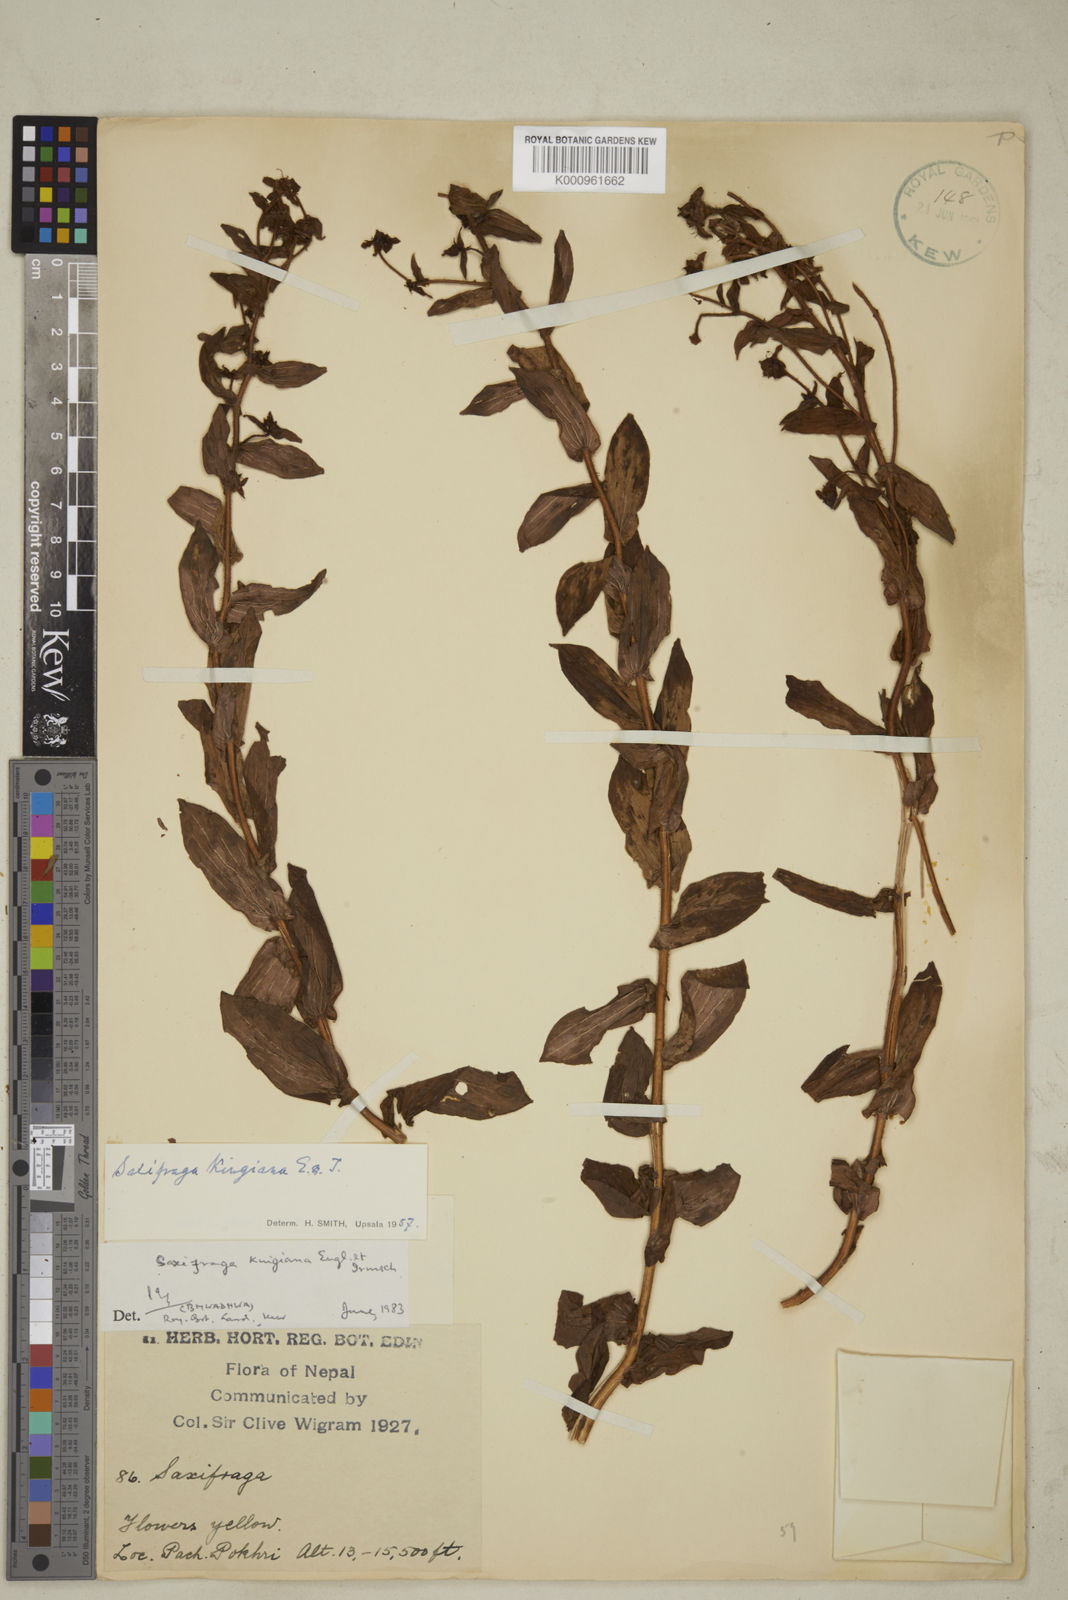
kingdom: Plantae
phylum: Tracheophyta
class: Magnoliopsida
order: Saxifragales
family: Saxifragaceae
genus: Saxifraga
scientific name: Saxifraga kingiana
